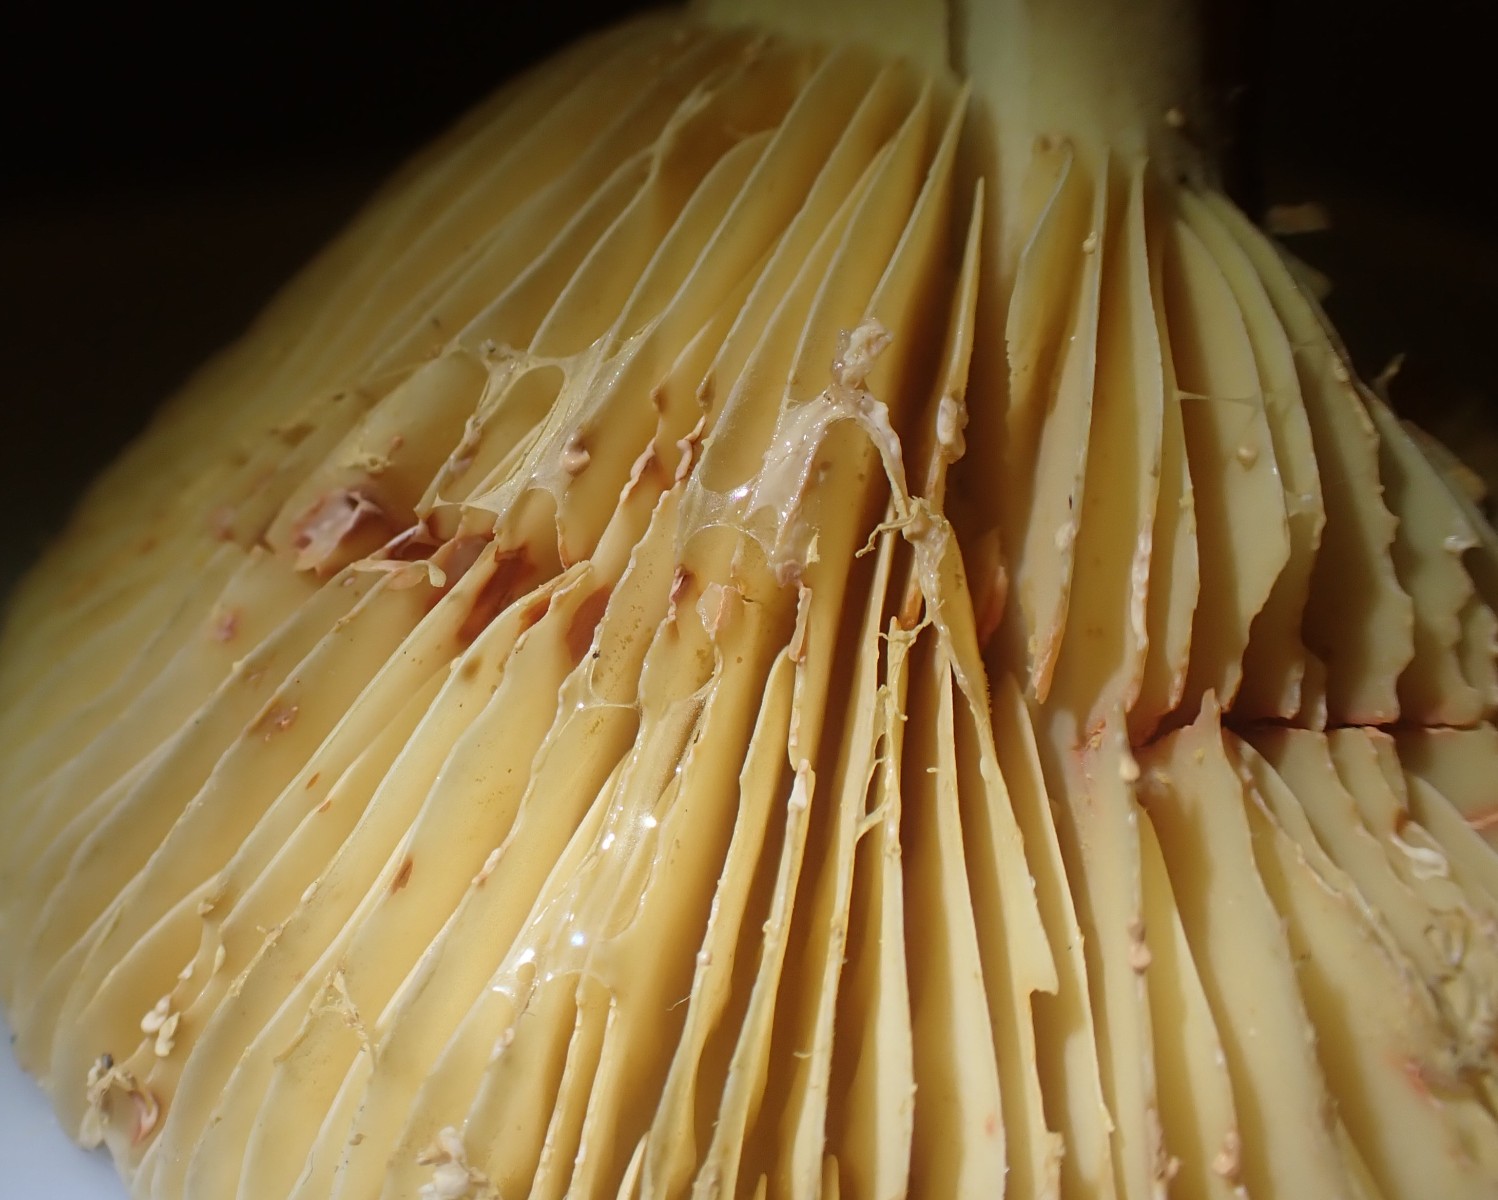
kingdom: Fungi
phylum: Basidiomycota
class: Agaricomycetes
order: Russulales
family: Russulaceae
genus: Lactarius
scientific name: Lactarius
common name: mælkehat
